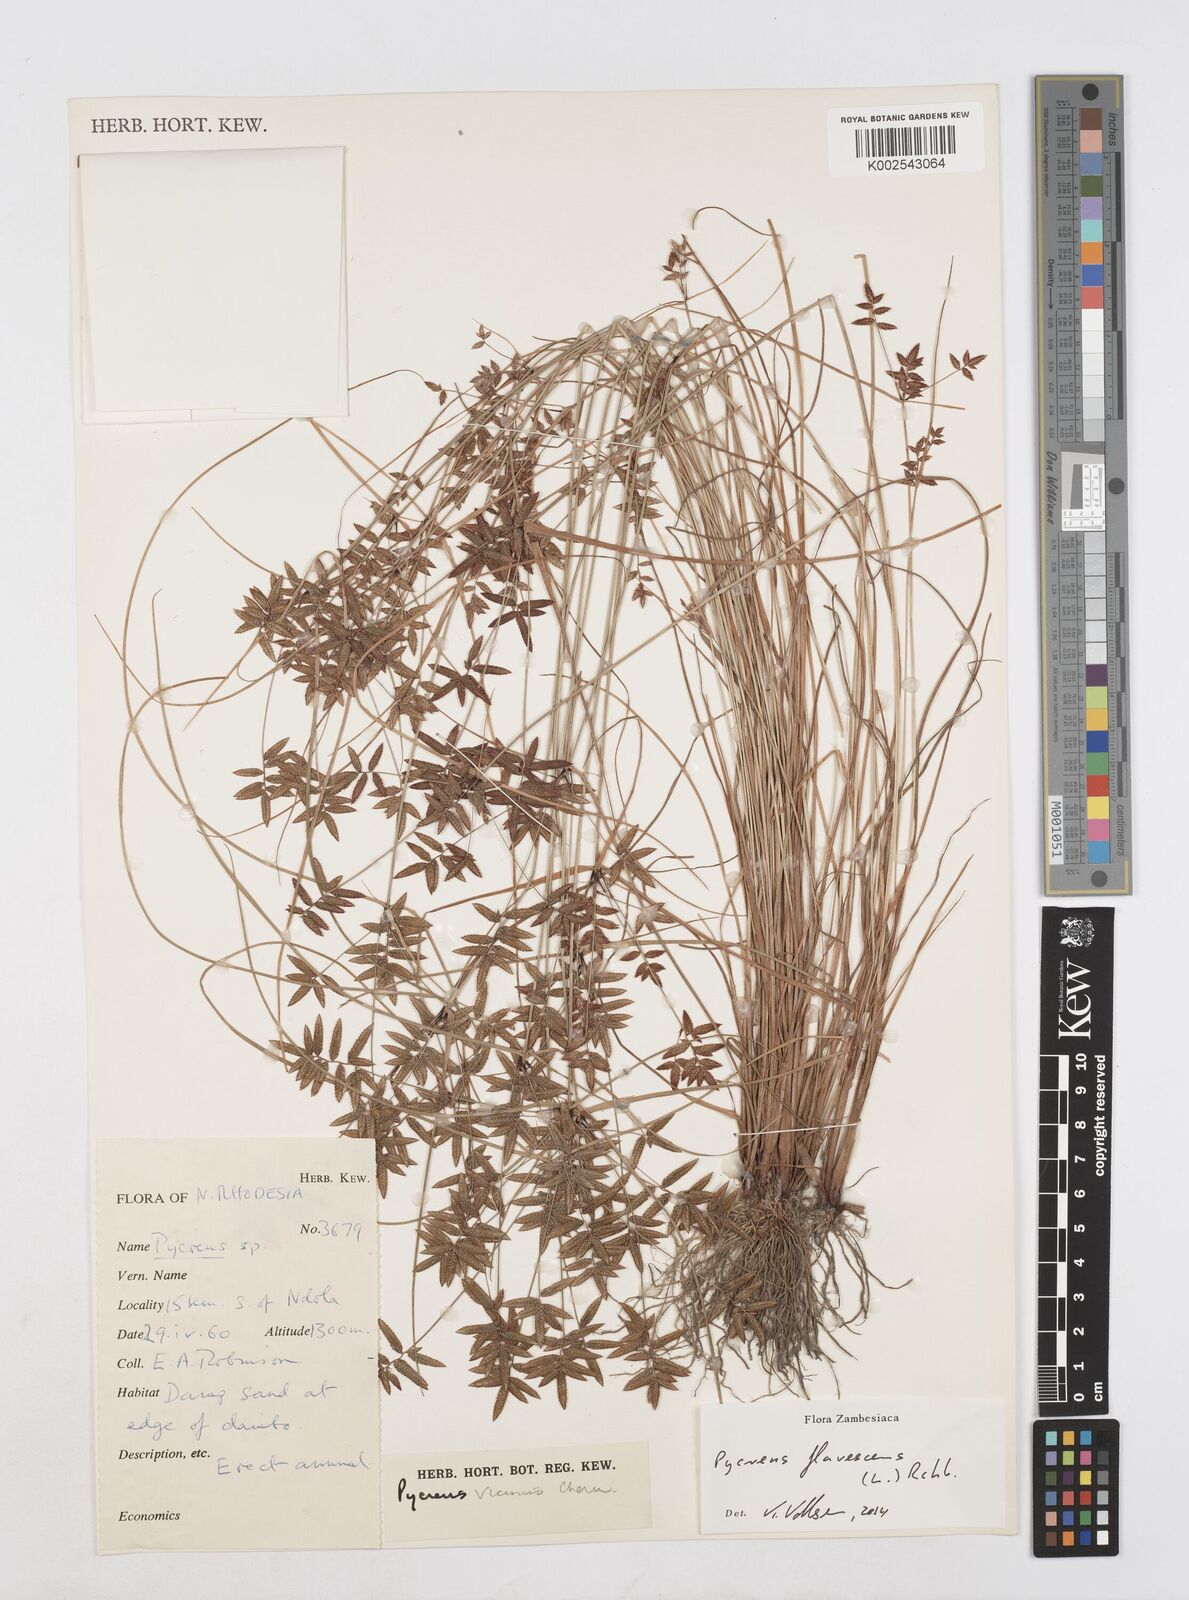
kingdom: Plantae
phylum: Tracheophyta
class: Liliopsida
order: Poales
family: Cyperaceae
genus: Cyperus
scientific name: Cyperus flavescens
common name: Yellow galingale
